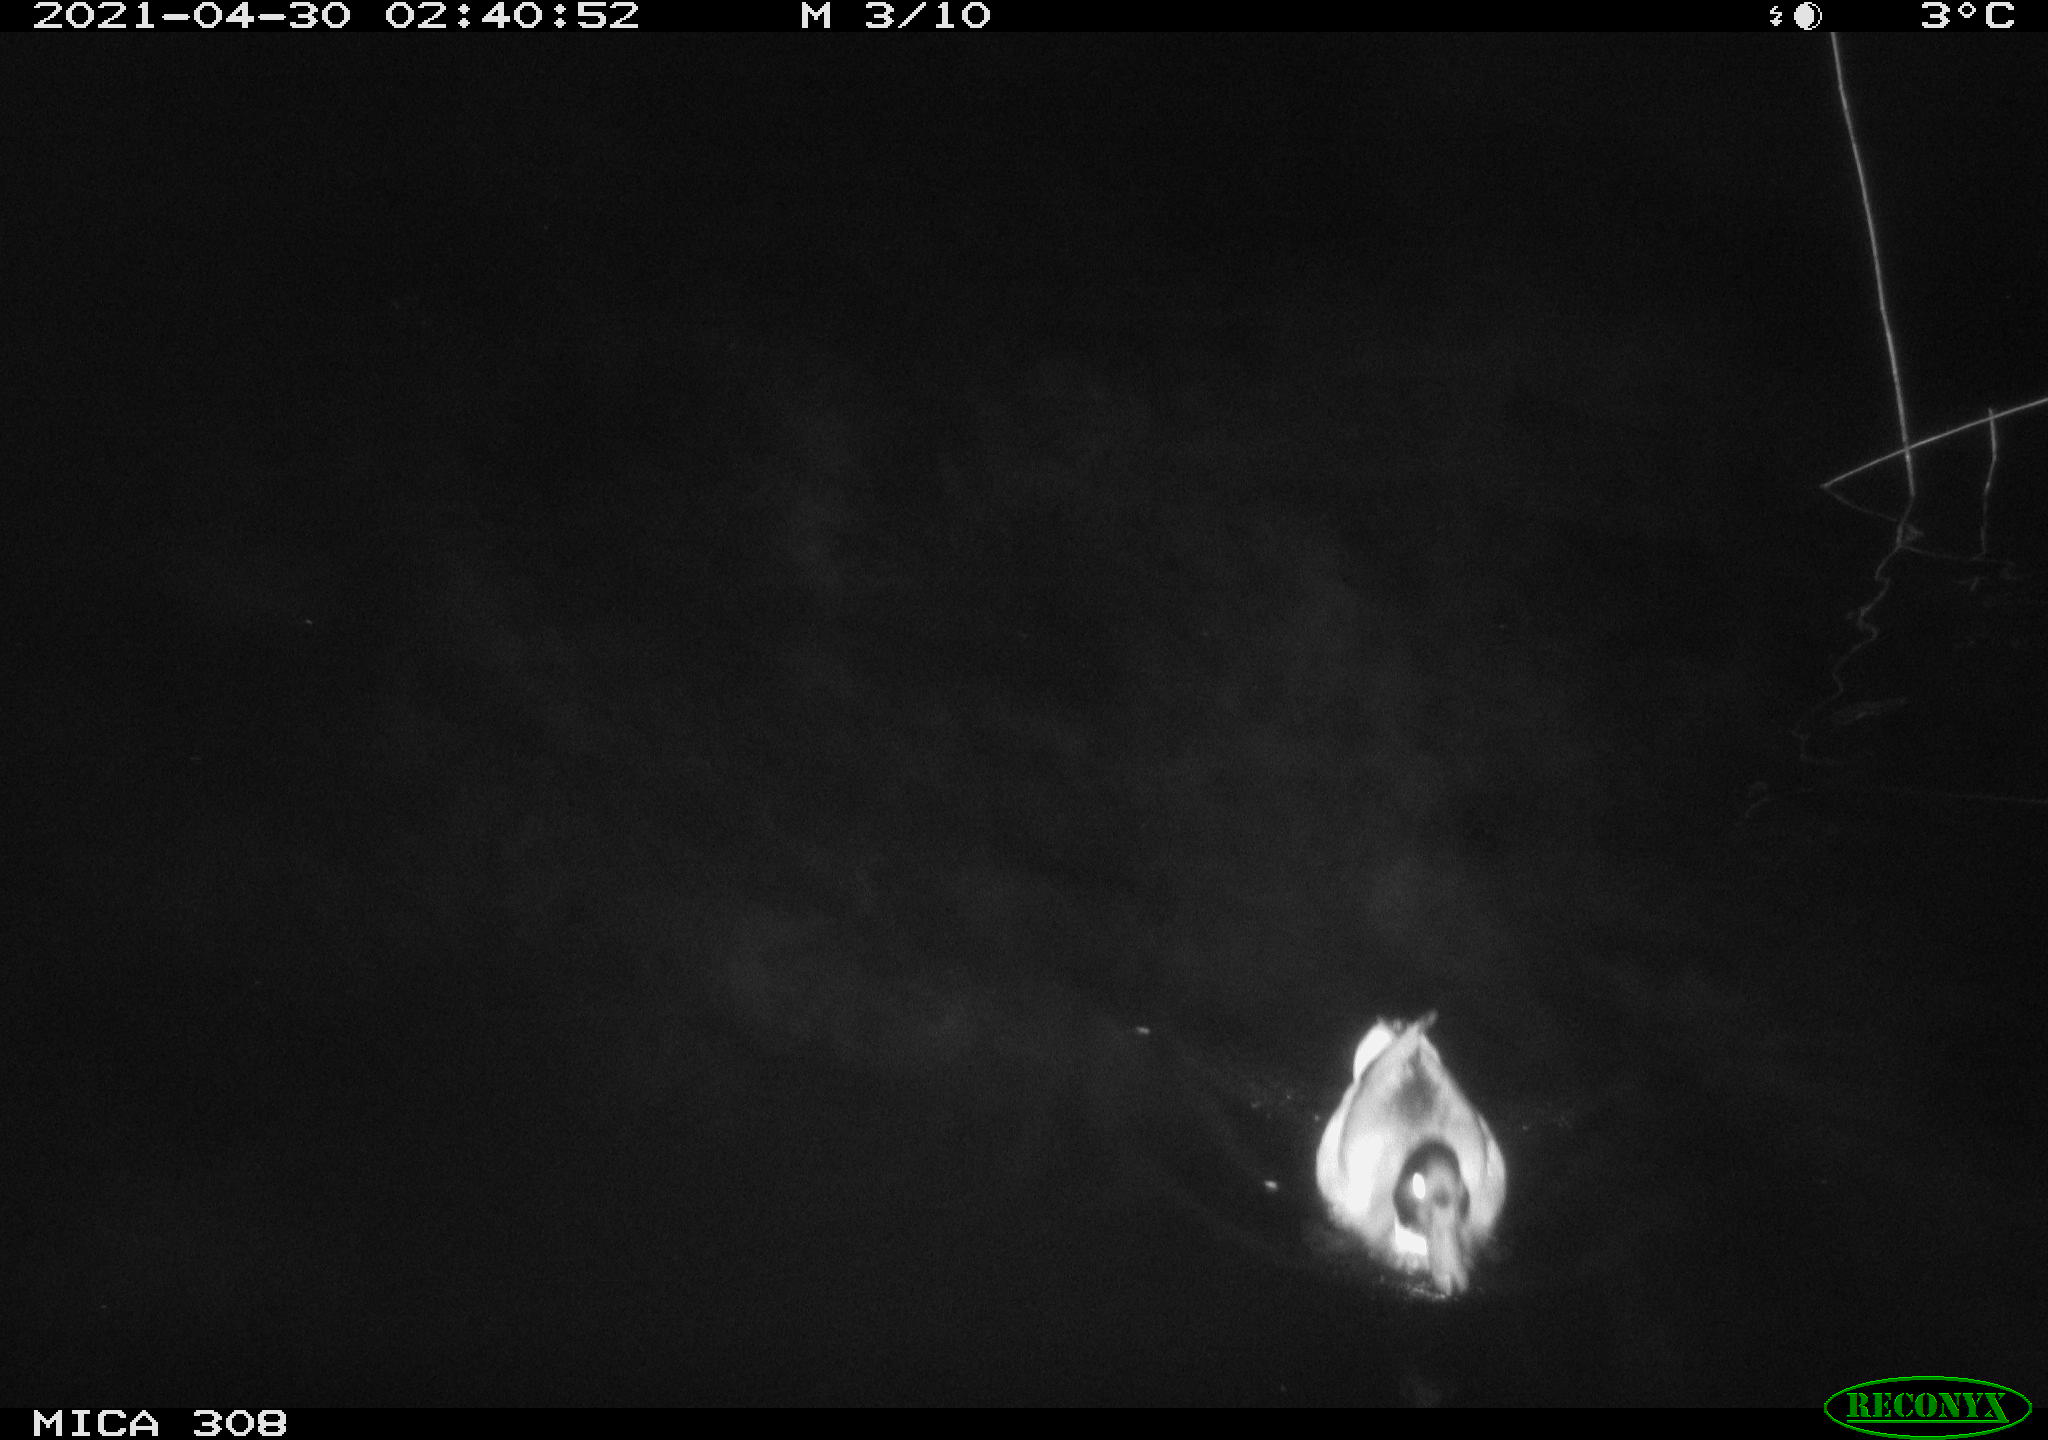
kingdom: Animalia
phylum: Chordata
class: Aves
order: Anseriformes
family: Anatidae
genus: Anas
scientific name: Anas platyrhynchos
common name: Mallard
